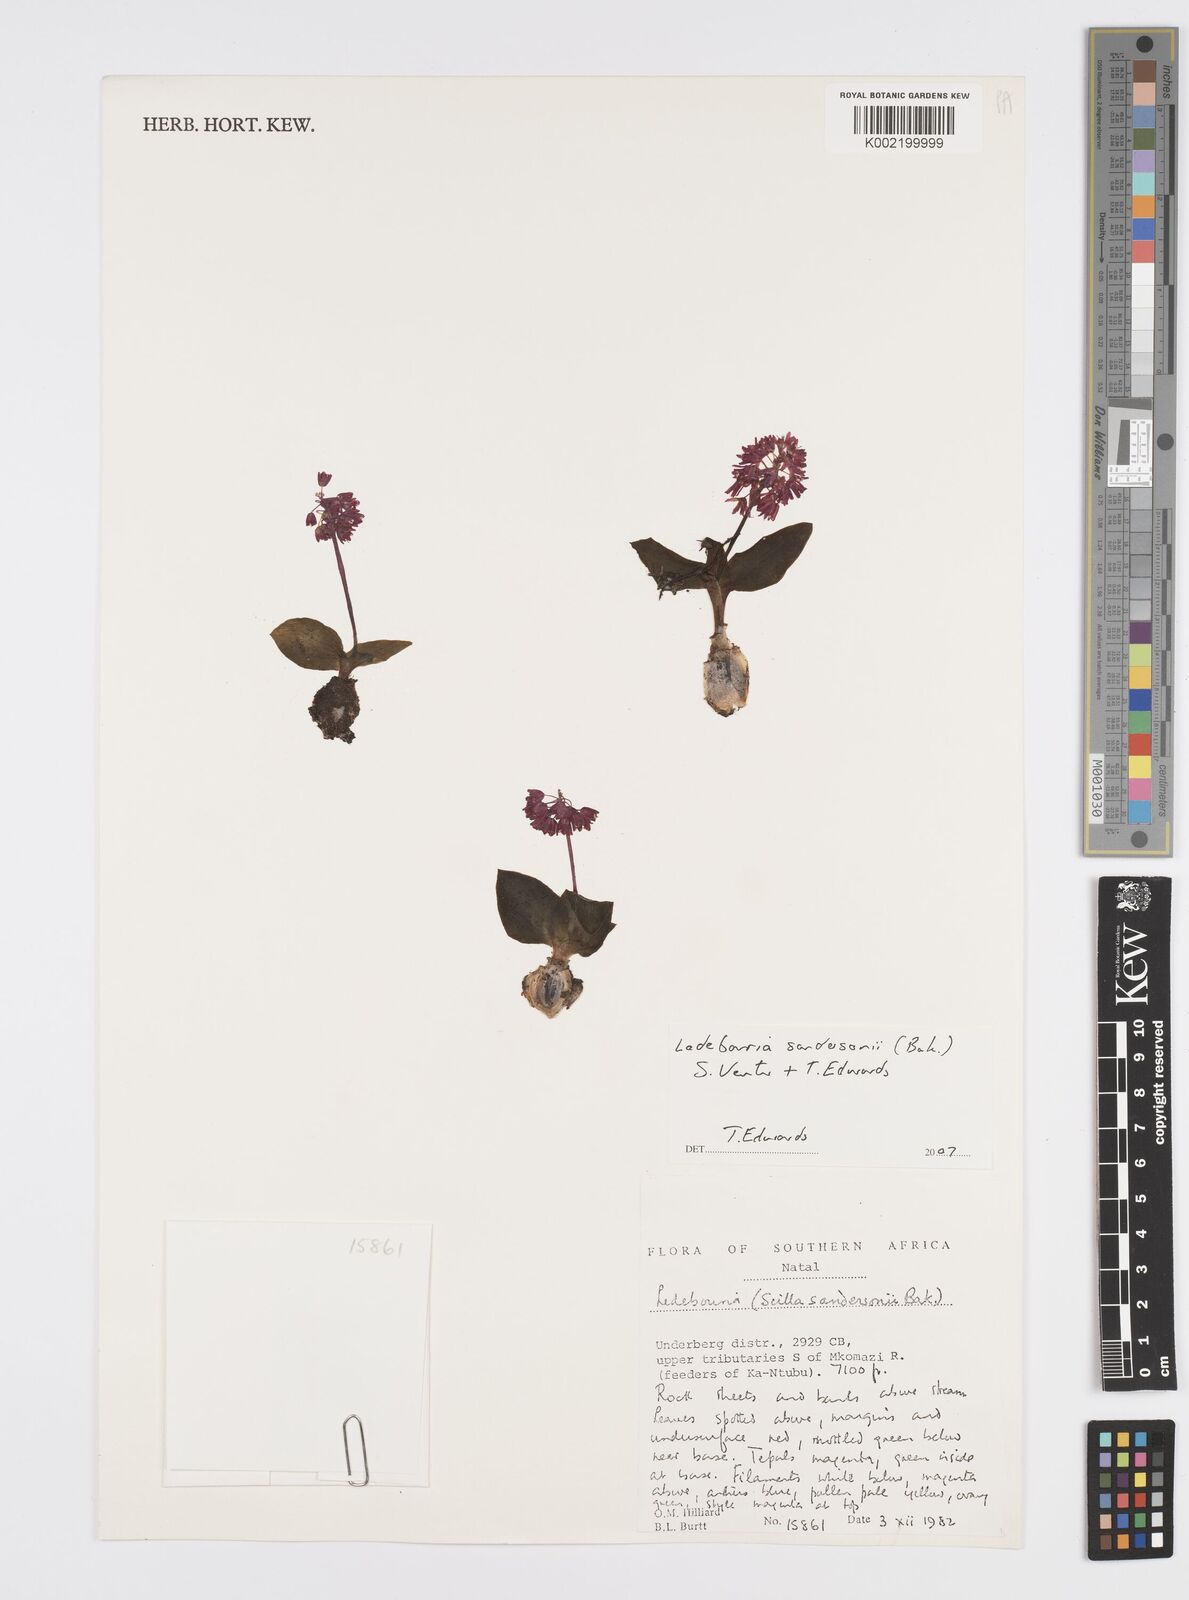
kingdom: Plantae
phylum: Tracheophyta
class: Liliopsida
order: Asparagales
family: Asparagaceae
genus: Ledebouria
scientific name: Ledebouria sandersonii
